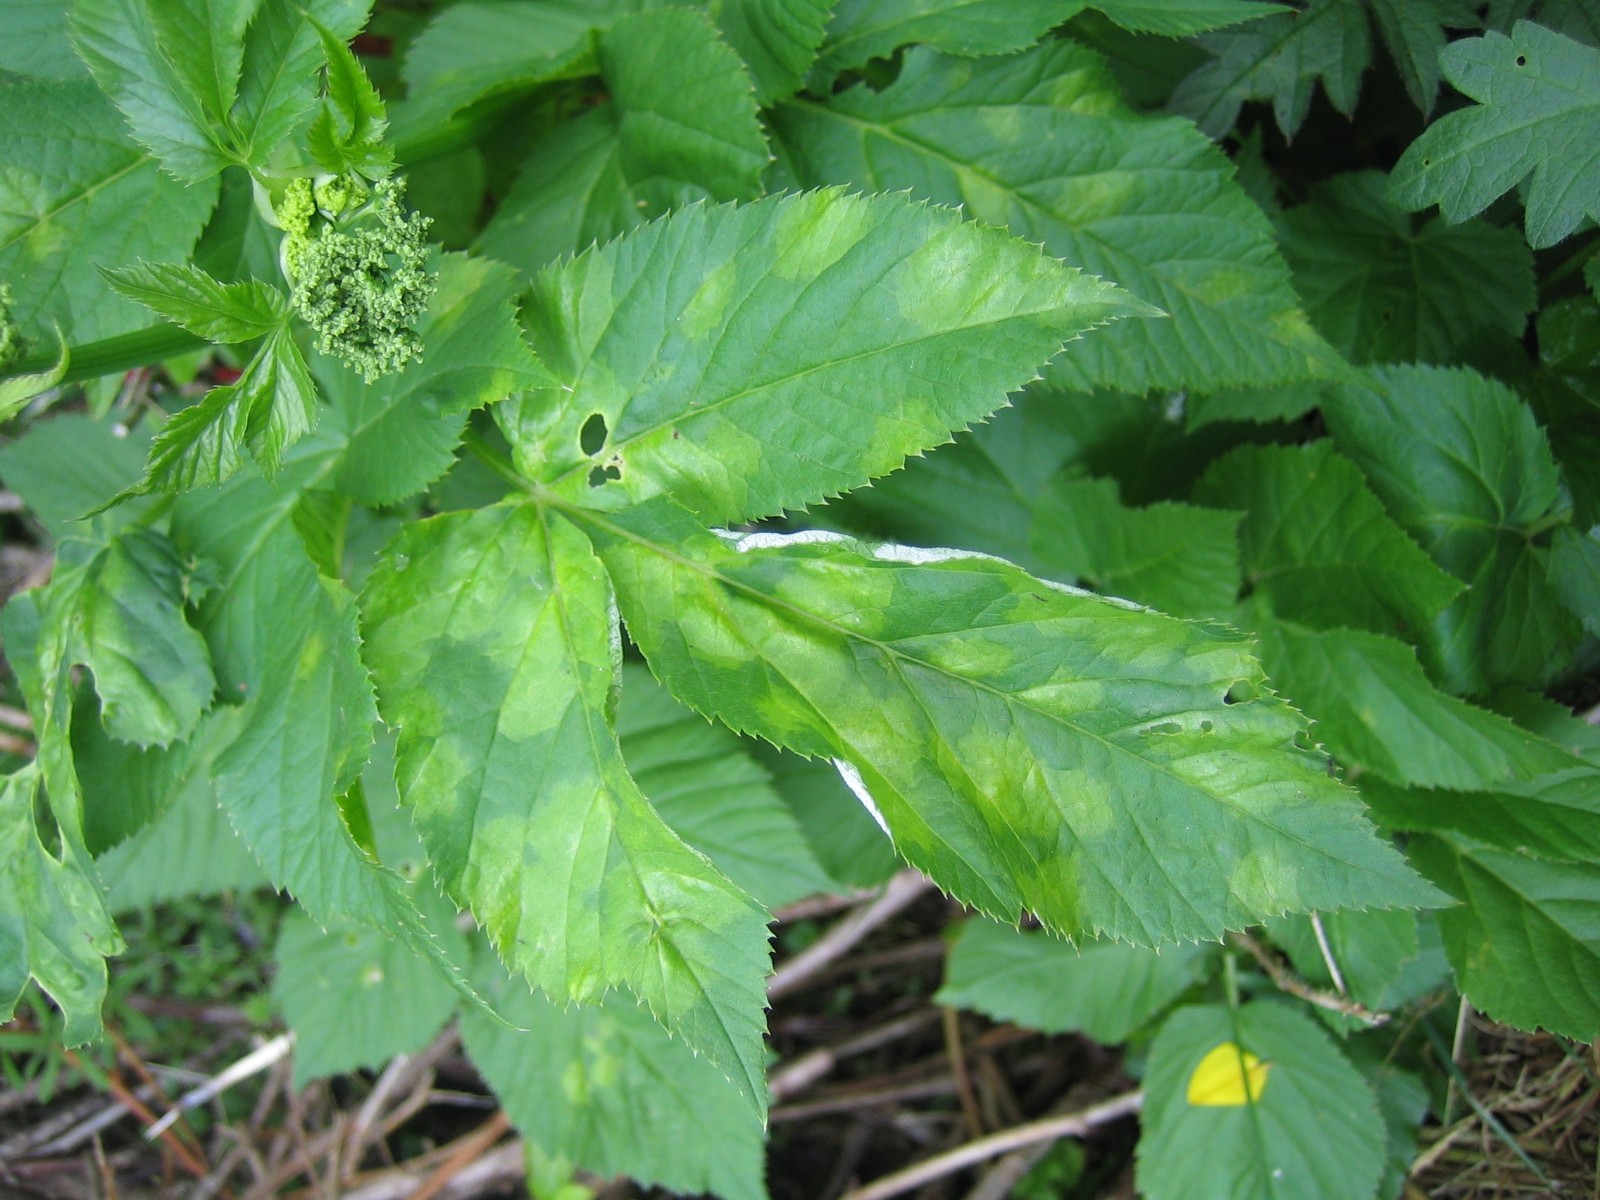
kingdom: Chromista
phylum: Oomycota
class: Peronosporea
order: Peronosporales
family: Peronosporaceae
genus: Peronospora
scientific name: Peronospora crustosa
